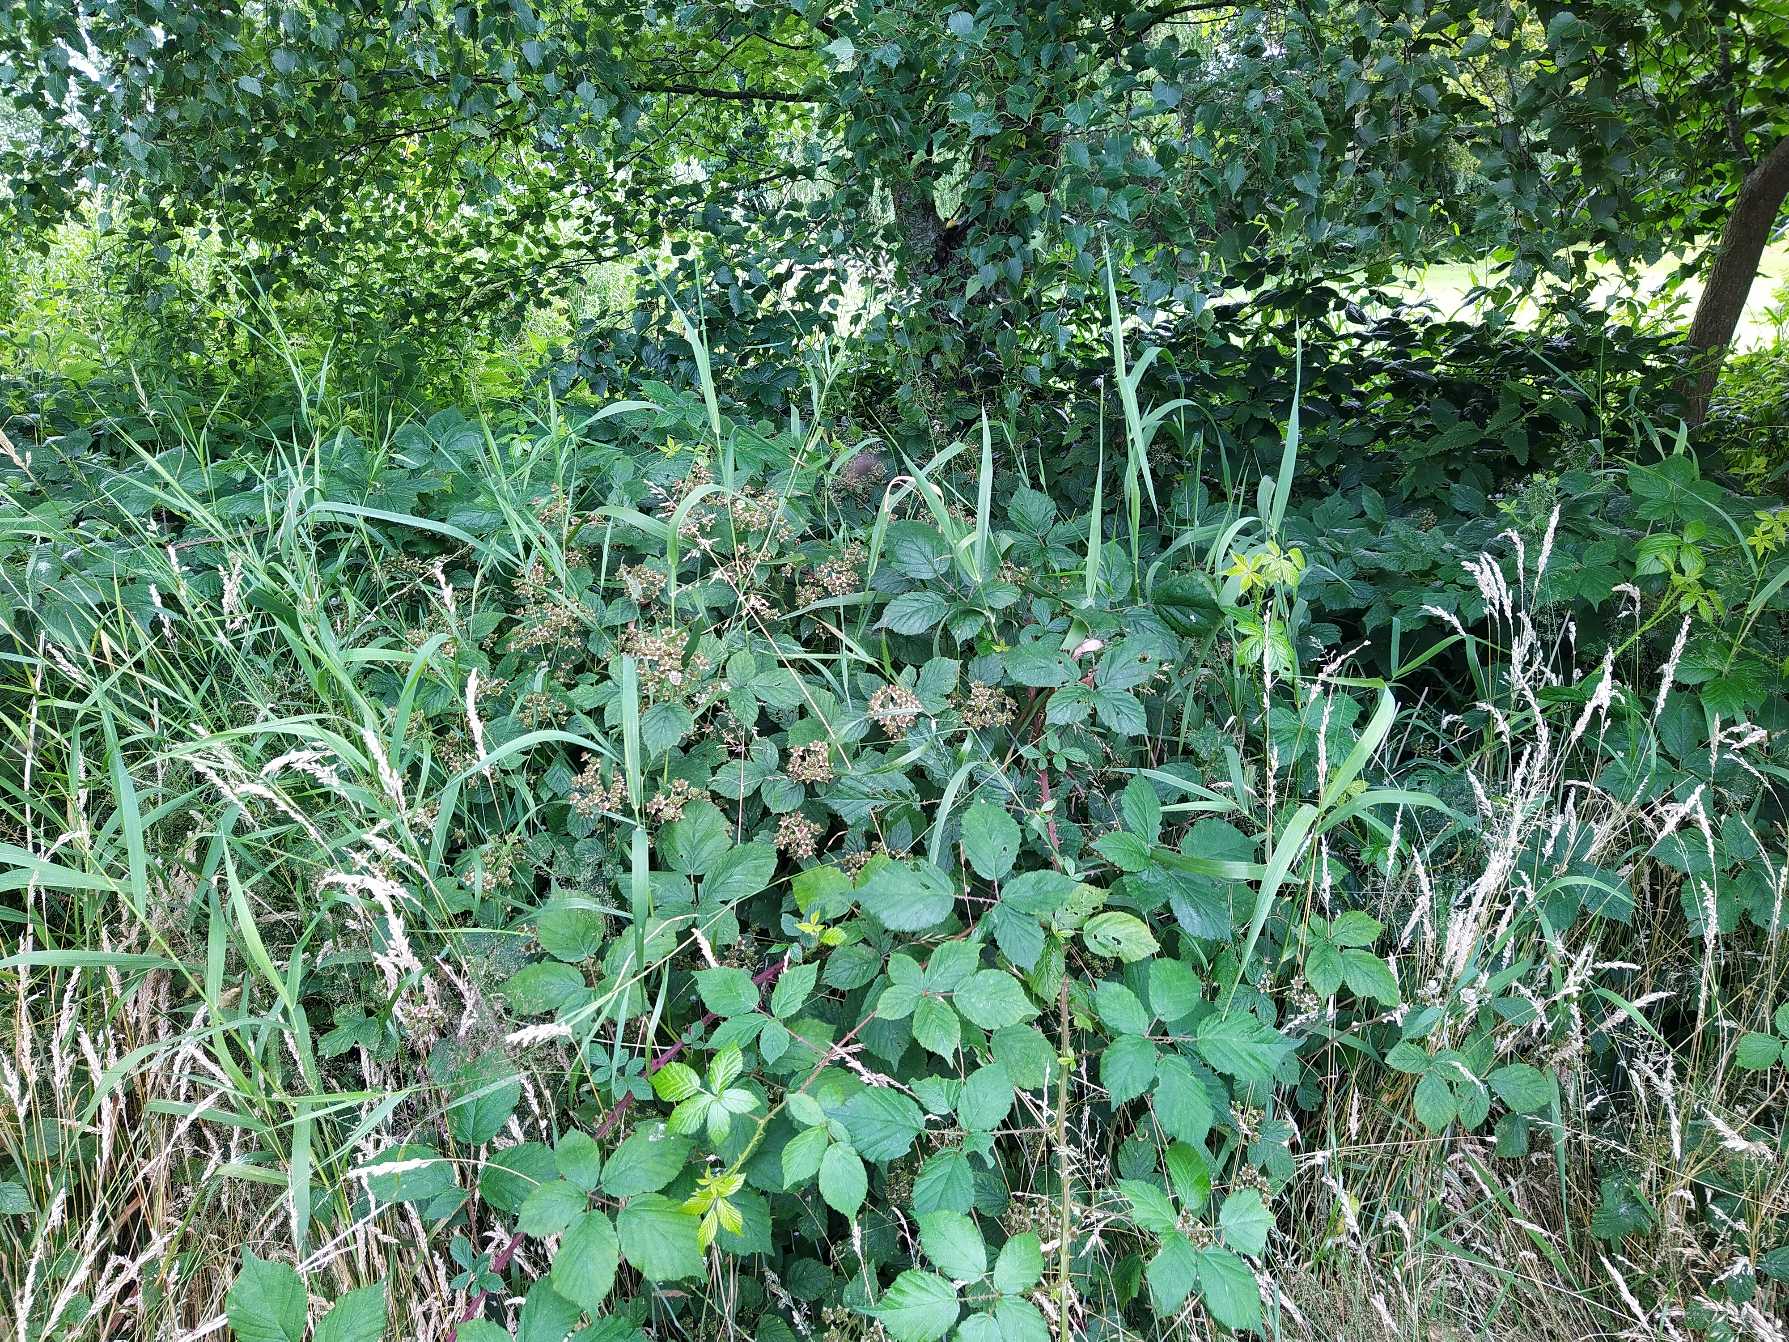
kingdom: Plantae
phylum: Tracheophyta
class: Magnoliopsida
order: Rosales
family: Rosaceae
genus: Rubus
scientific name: Rubus
